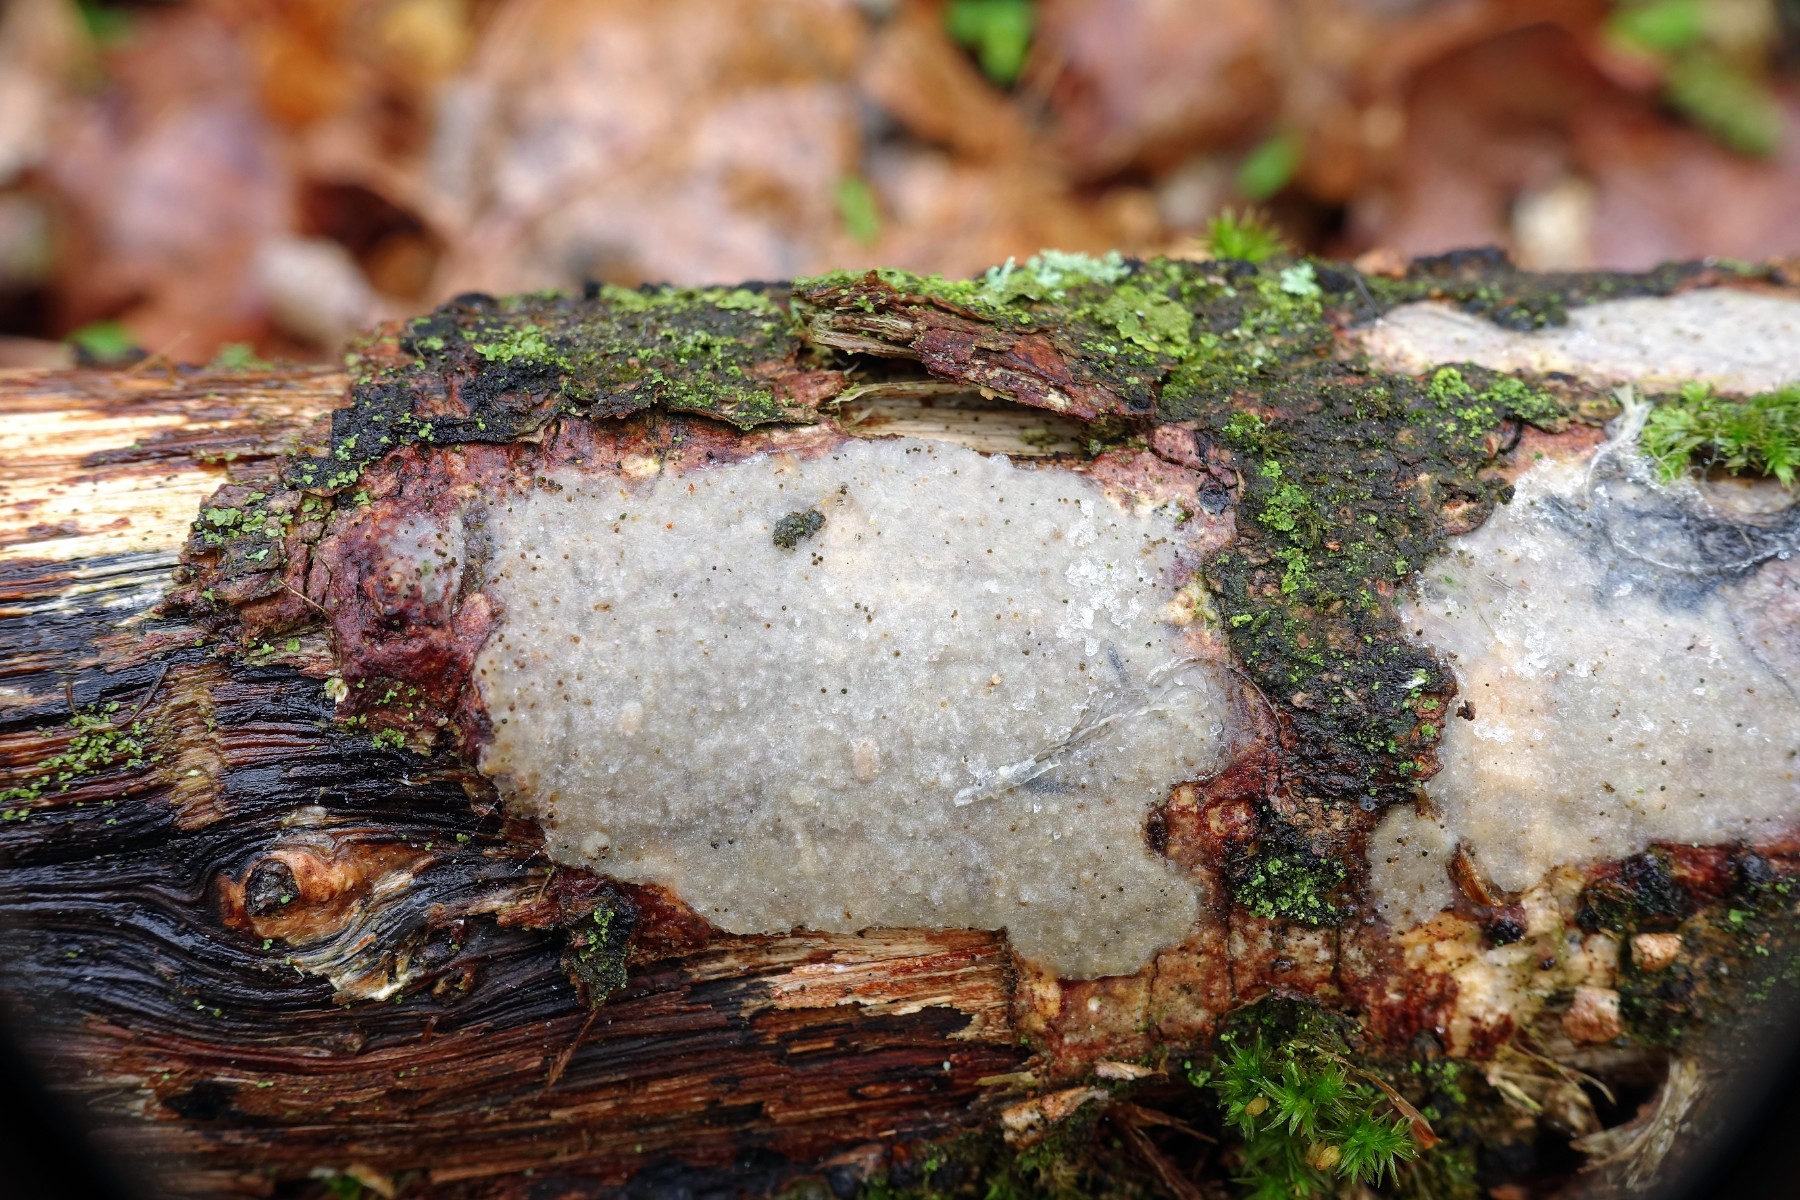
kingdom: Fungi
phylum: Basidiomycota
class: Agaricomycetes
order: Corticiales
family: Vuilleminiaceae
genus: Vuilleminia
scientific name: Vuilleminia comedens
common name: almindelig barksprænger
